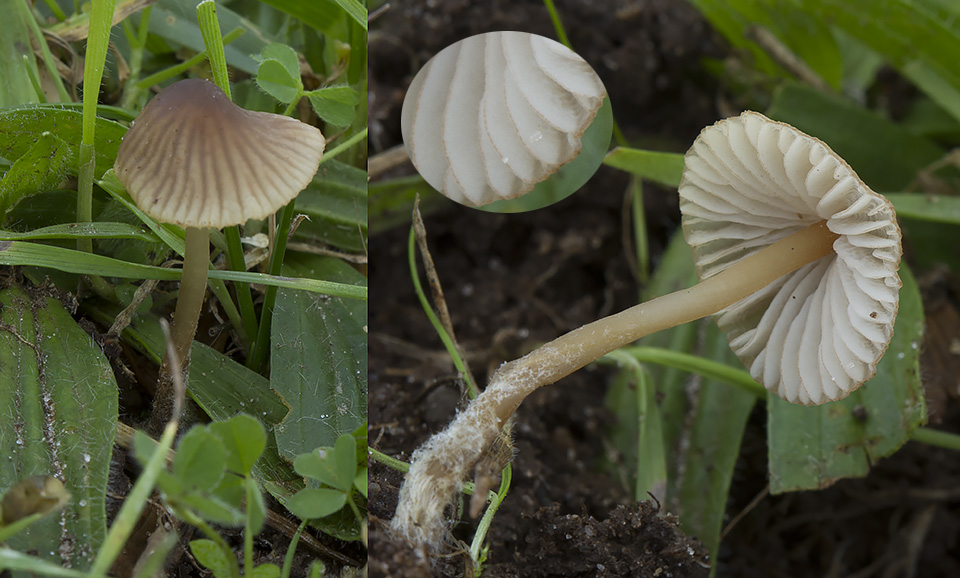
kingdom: Fungi
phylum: Basidiomycota
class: Agaricomycetes
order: Agaricales
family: Mycenaceae
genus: Mycena
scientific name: Mycena olivaceomarginata
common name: brunægget huesvamp
